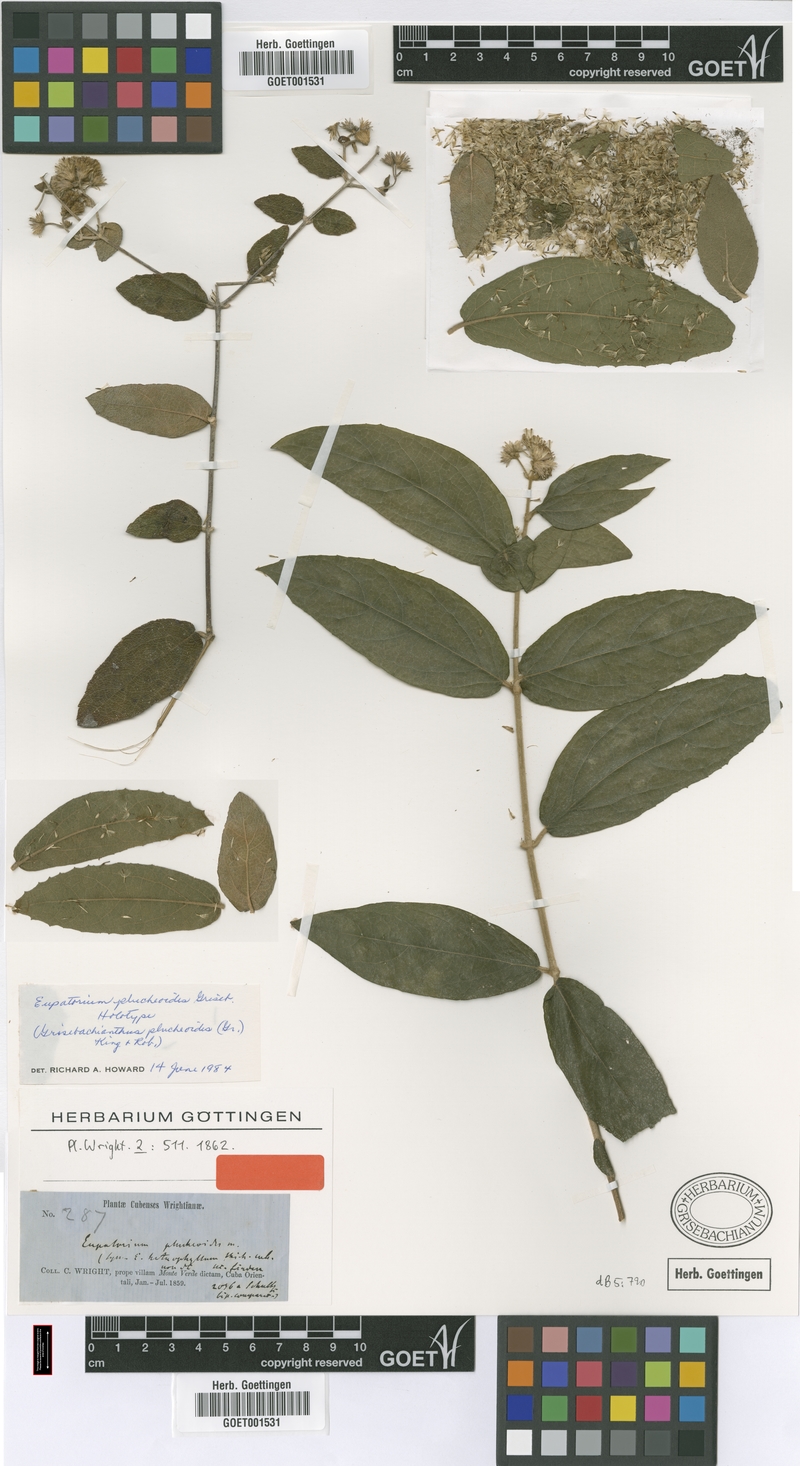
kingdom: Plantae
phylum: Tracheophyta
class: Magnoliopsida
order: Asterales
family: Asteraceae
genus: Grisebachianthus
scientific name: Grisebachianthus plucheoides
